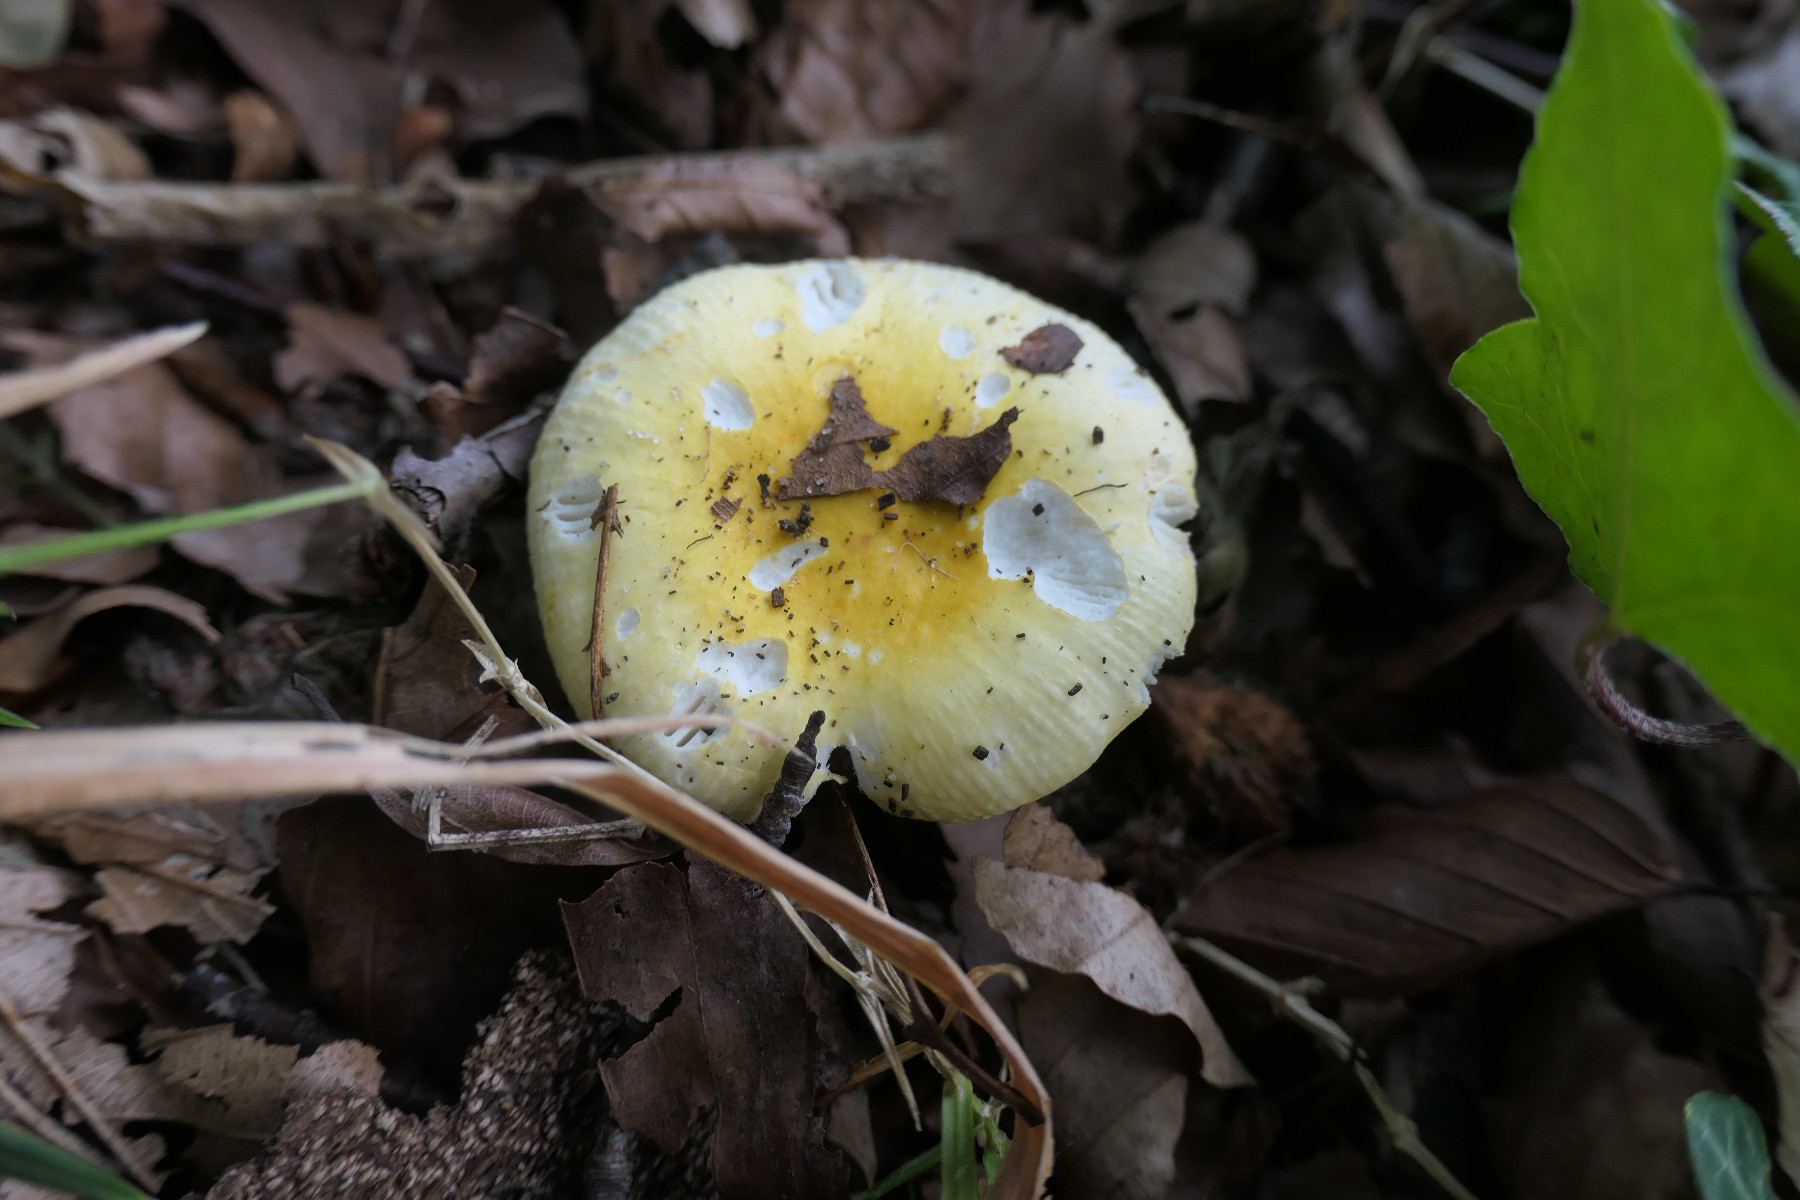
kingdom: Fungi
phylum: Basidiomycota
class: Agaricomycetes
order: Russulales
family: Russulaceae
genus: Russula
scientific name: Russula solaris
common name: sol-skørhat
